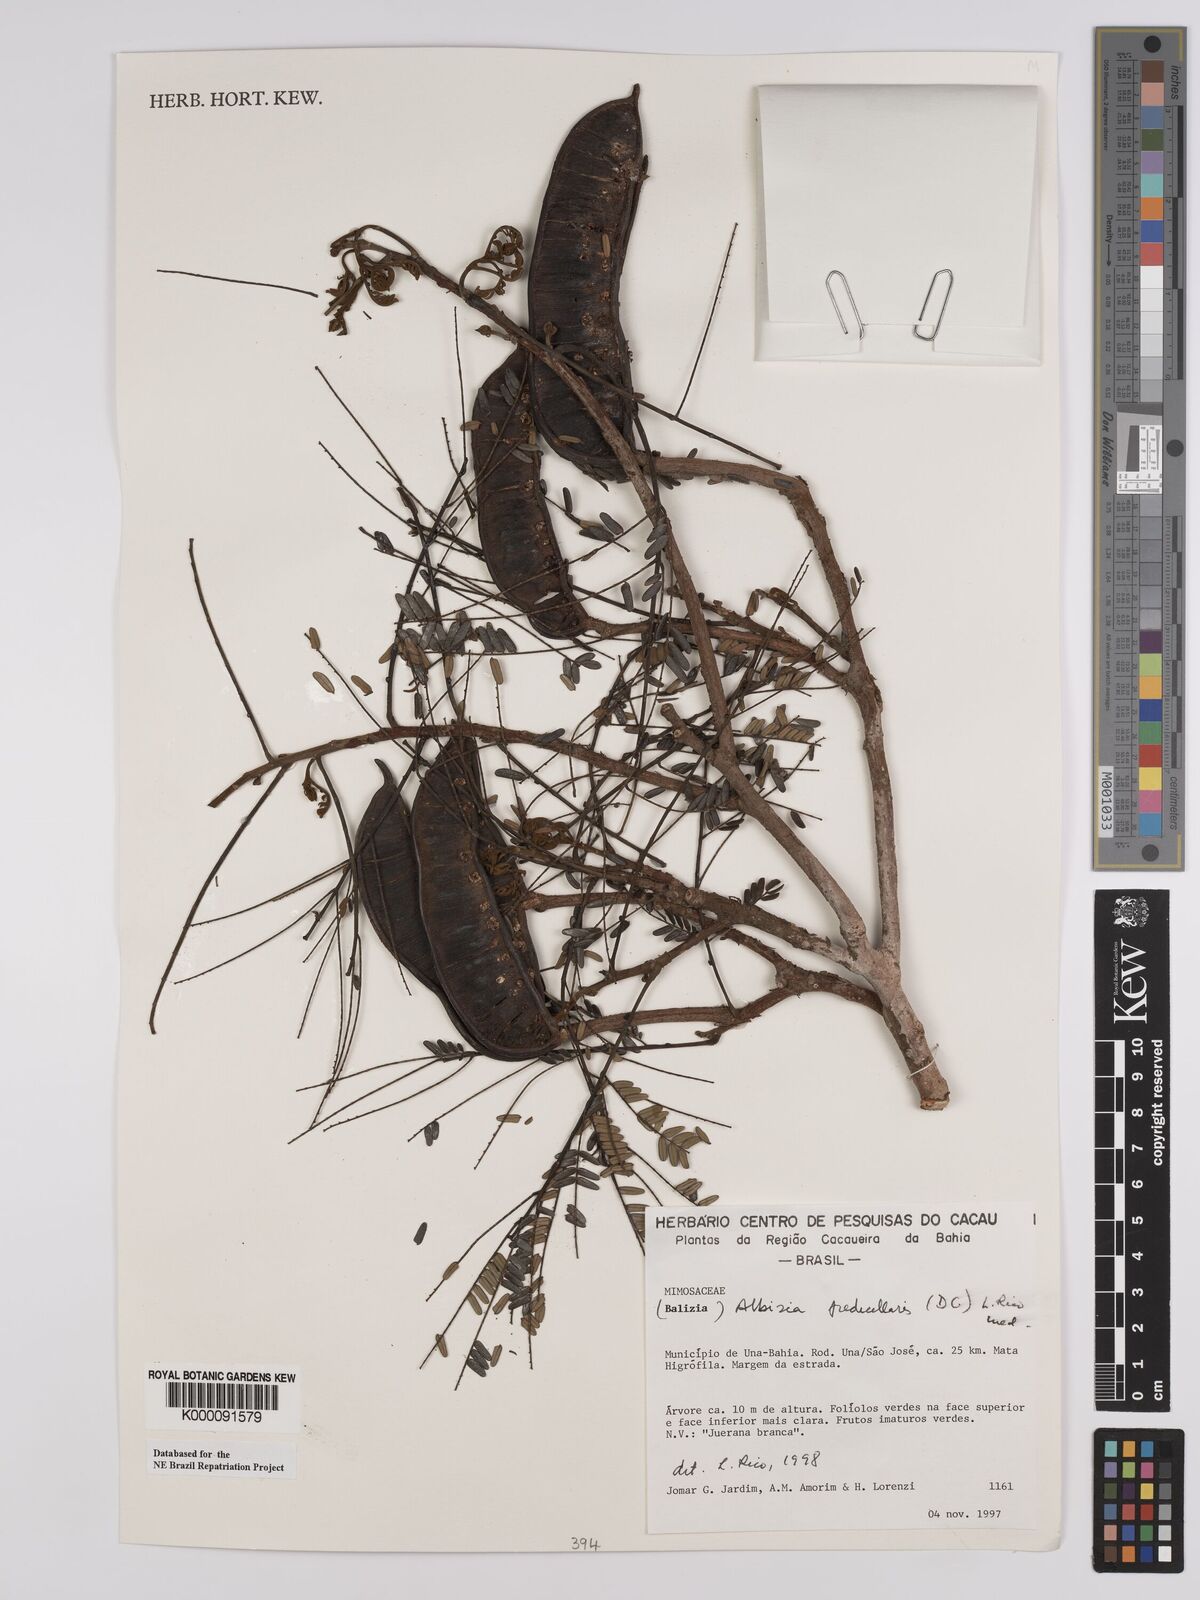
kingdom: Plantae
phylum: Tracheophyta
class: Magnoliopsida
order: Fabales
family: Fabaceae
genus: Balizia
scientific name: Balizia pedicellaris
